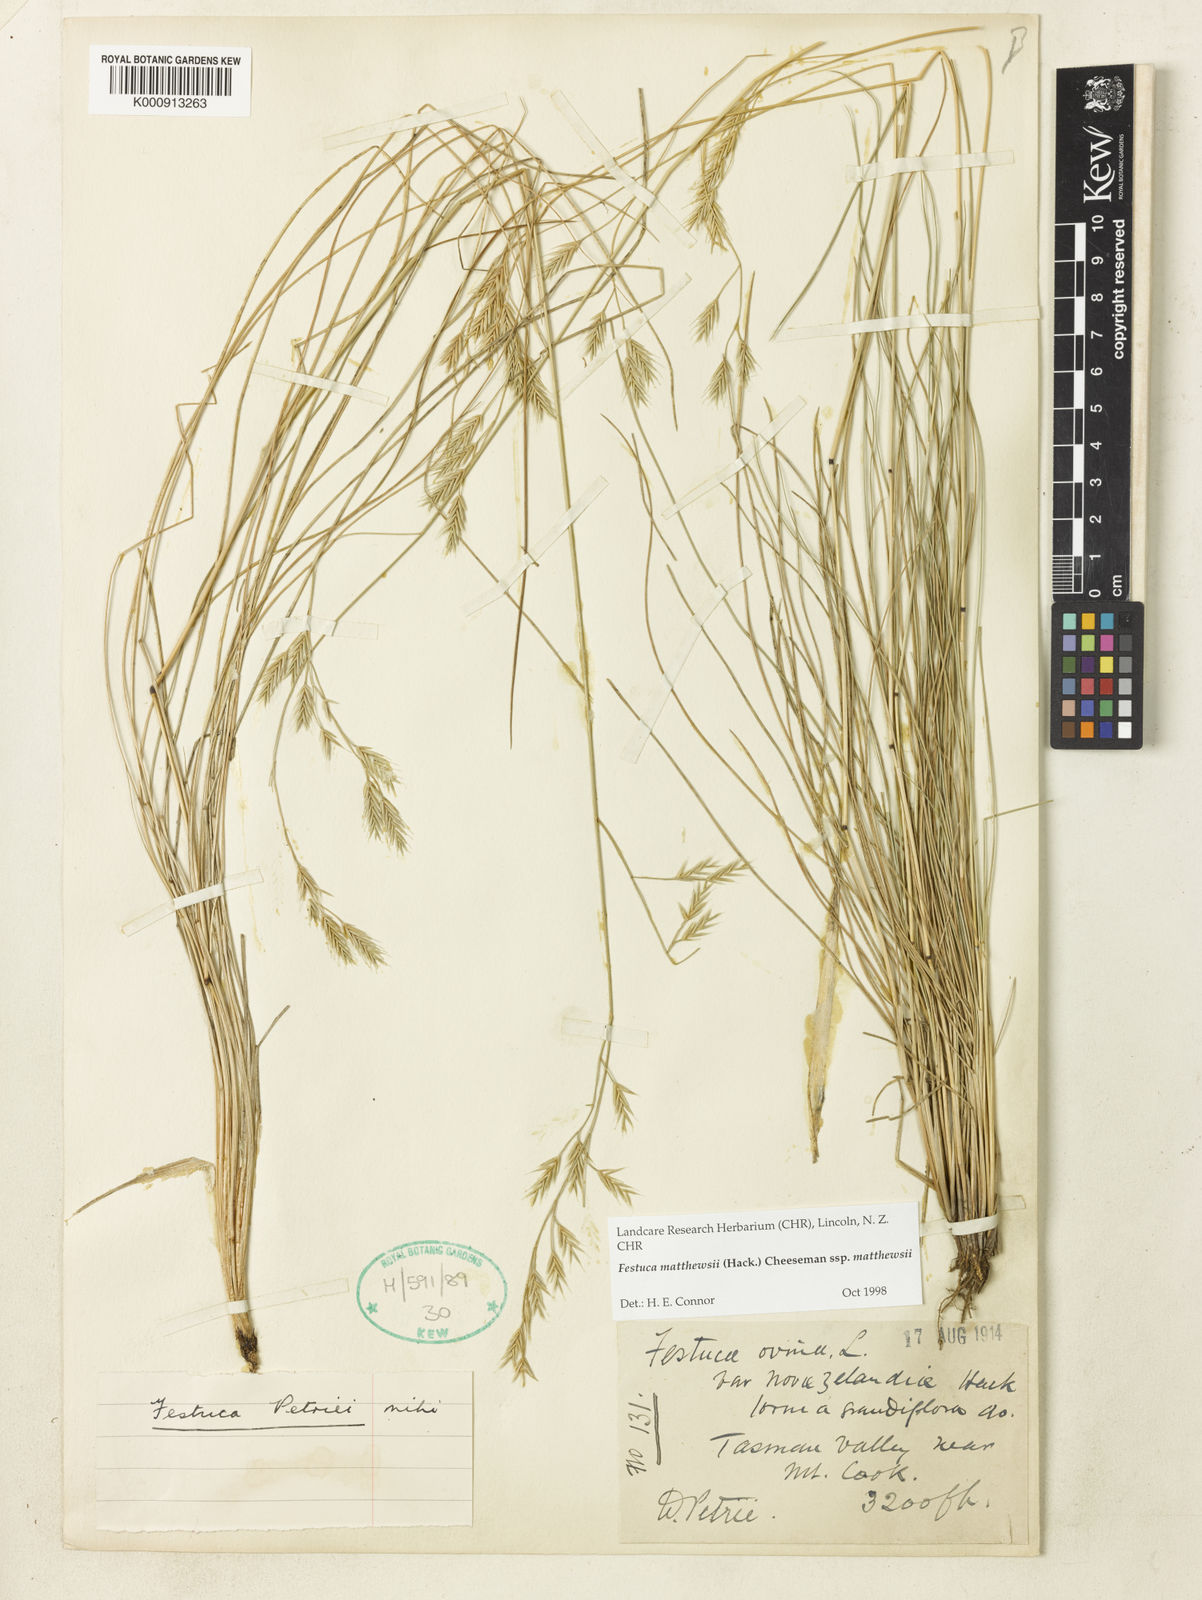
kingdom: Plantae
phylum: Tracheophyta
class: Liliopsida
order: Poales
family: Poaceae
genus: Festuca
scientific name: Festuca matthewsii
